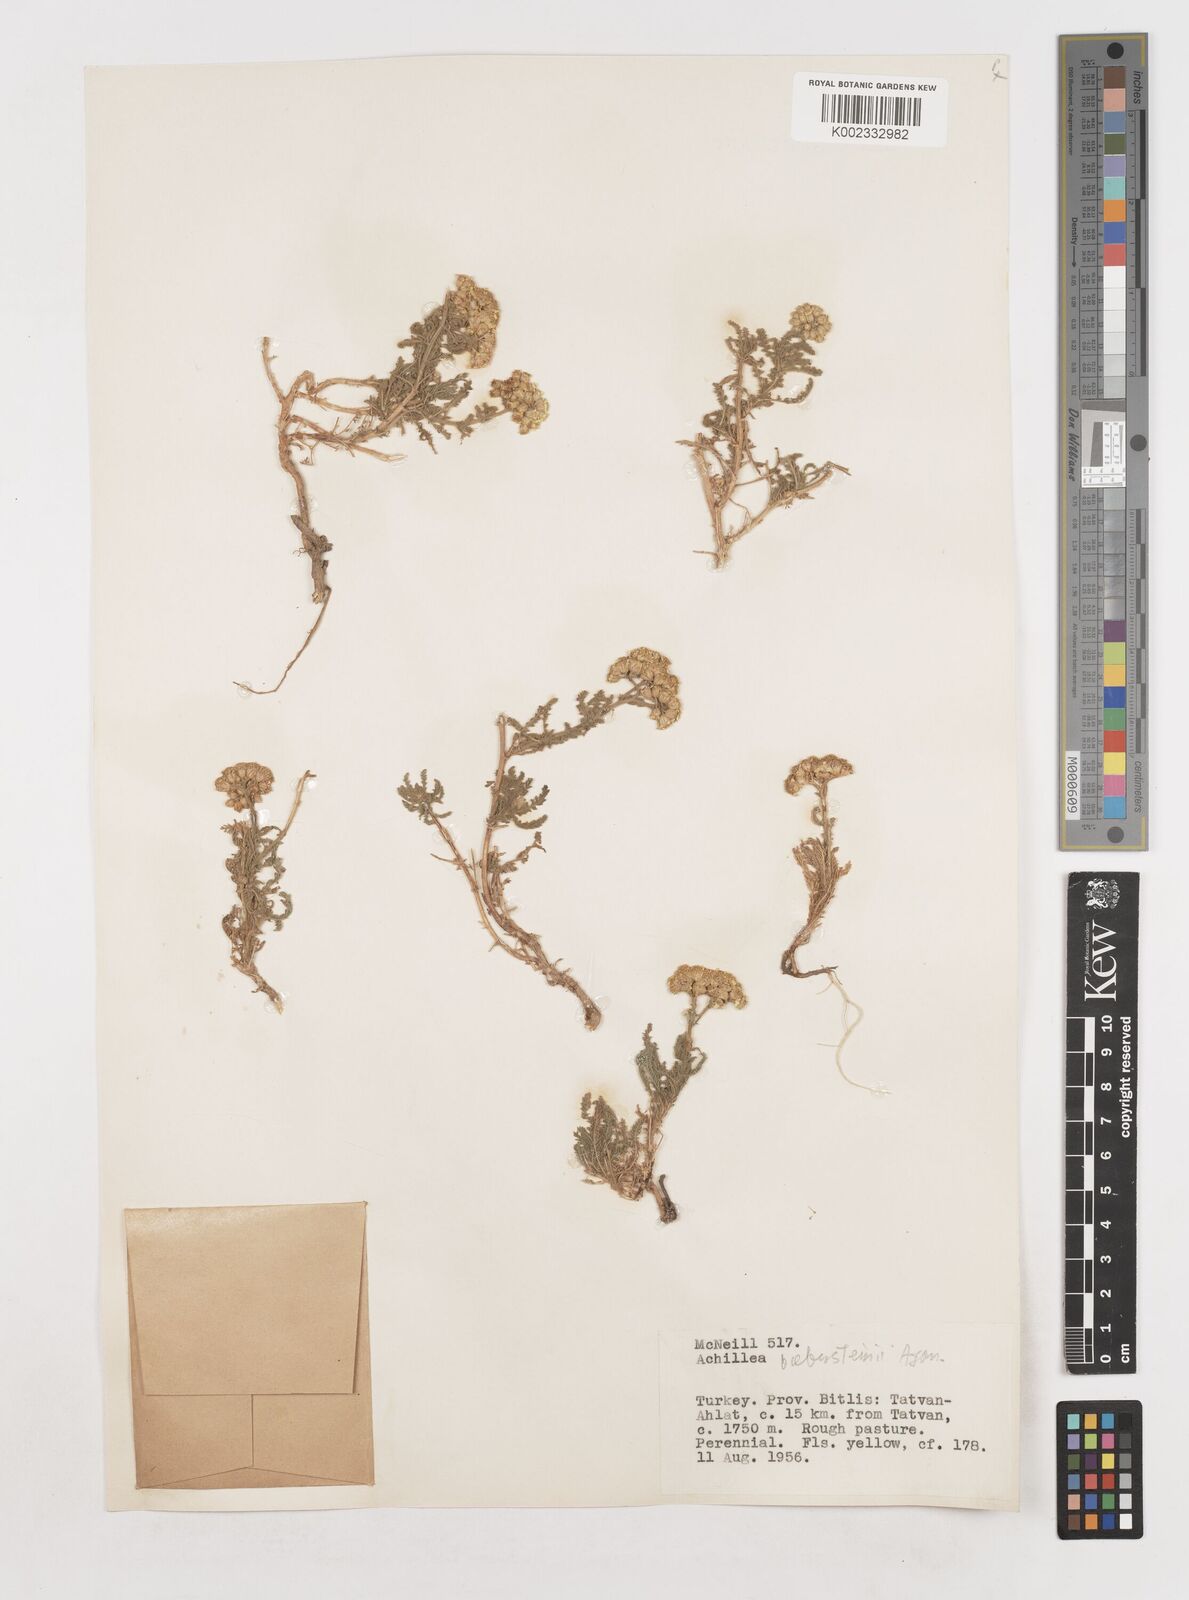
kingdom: Plantae
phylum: Tracheophyta
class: Magnoliopsida
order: Asterales
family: Asteraceae
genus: Achillea
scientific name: Achillea arabica
